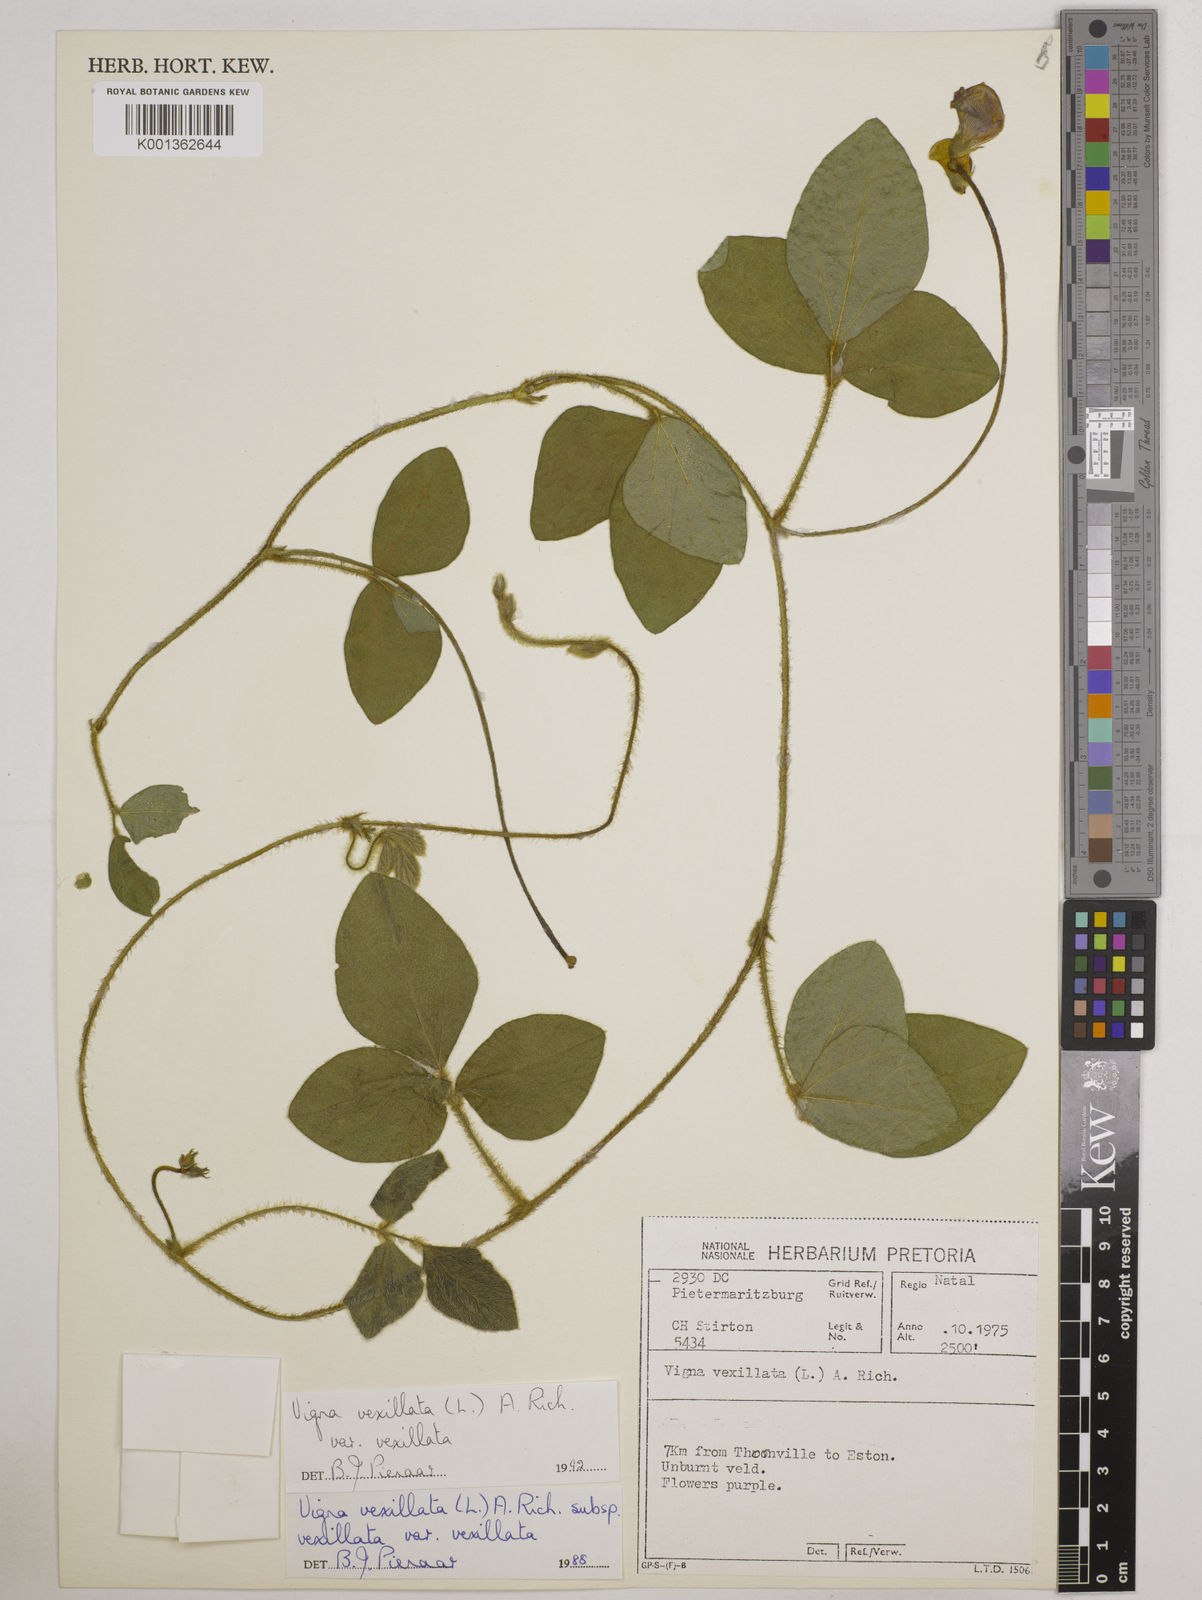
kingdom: Plantae
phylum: Tracheophyta
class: Magnoliopsida
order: Fabales
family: Fabaceae
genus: Vigna
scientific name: Vigna vexillata
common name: Zombi pea
